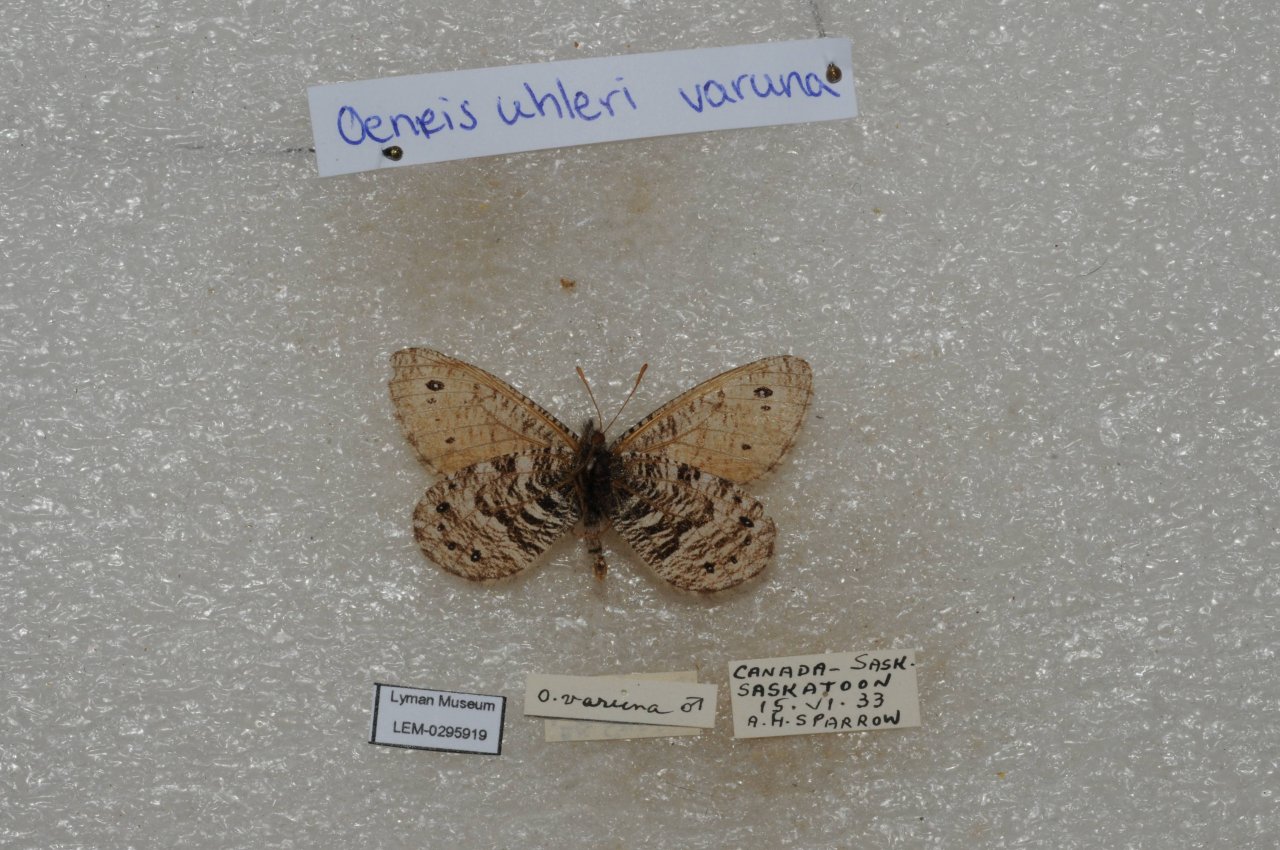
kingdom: Animalia
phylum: Arthropoda
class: Insecta
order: Lepidoptera
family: Nymphalidae
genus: Oeneis
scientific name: Oeneis uhleri
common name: Uhler's Arctic
